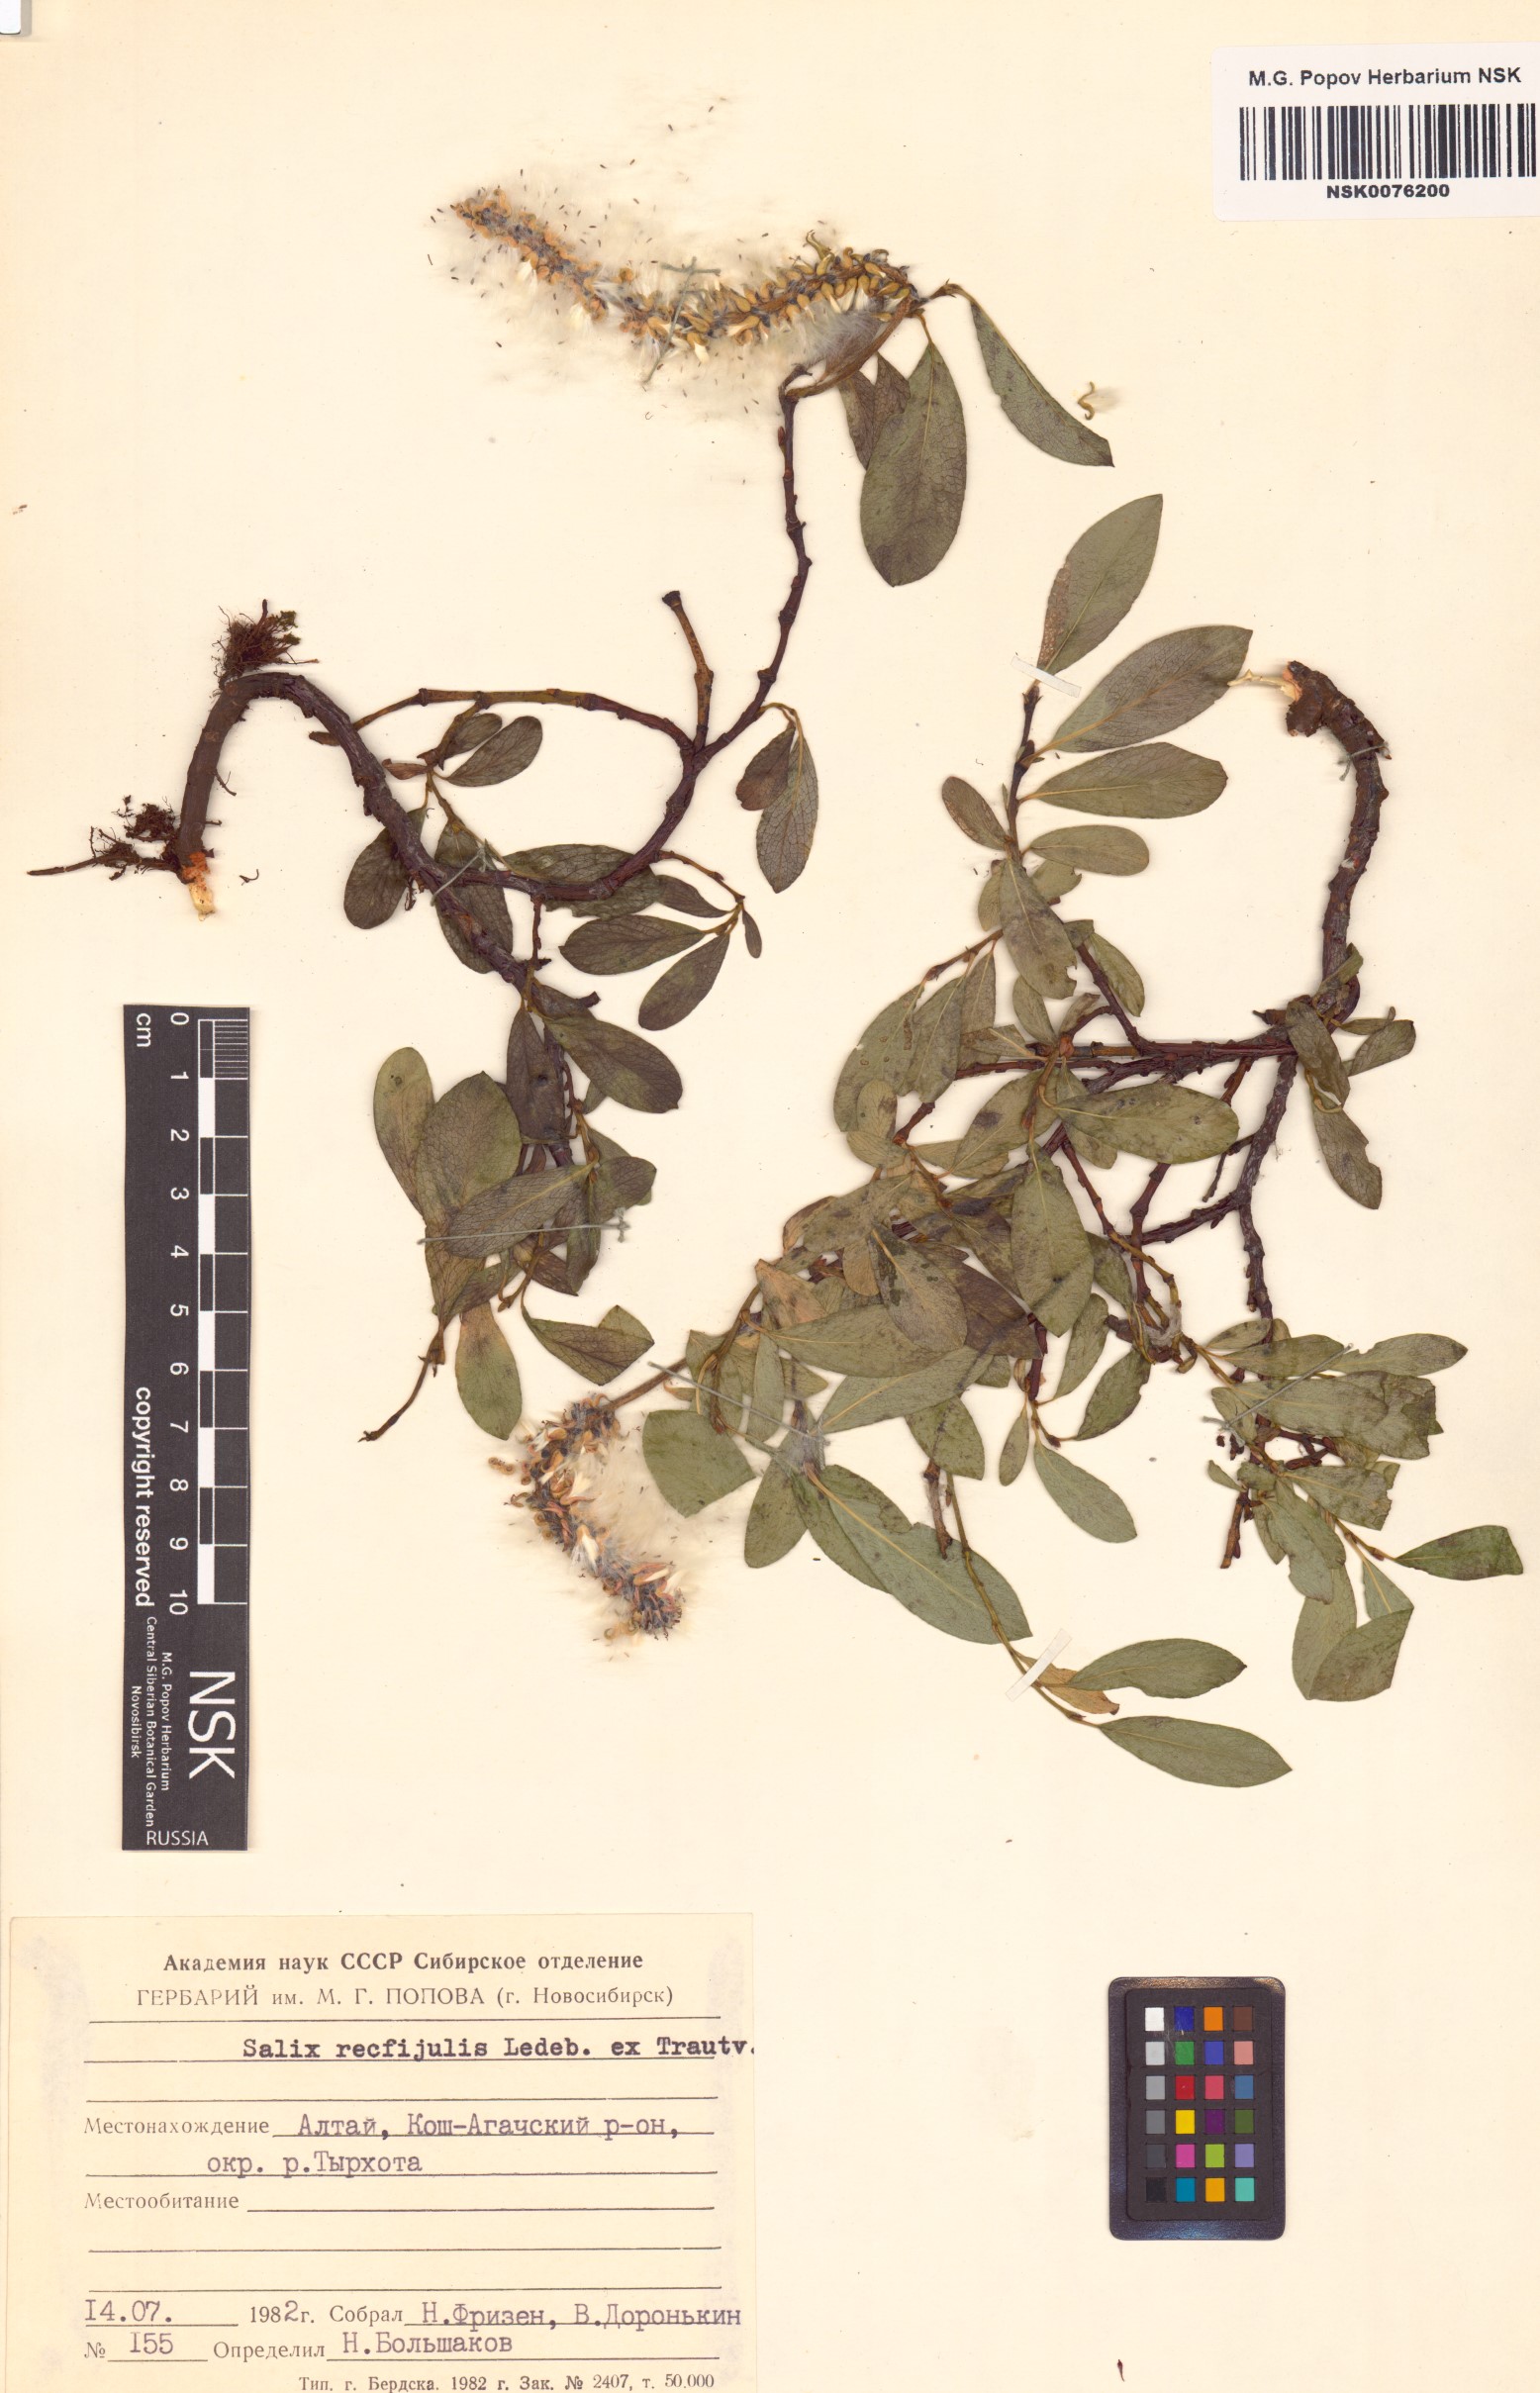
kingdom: Plantae
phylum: Tracheophyta
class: Magnoliopsida
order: Malpighiales
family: Salicaceae
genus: Salix
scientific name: Salix rectijulis
